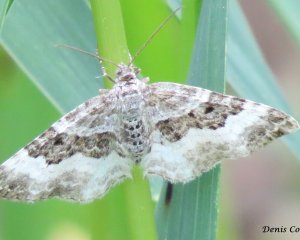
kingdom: Animalia
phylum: Arthropoda
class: Insecta
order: Lepidoptera
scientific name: Lepidoptera
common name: Butterflies
